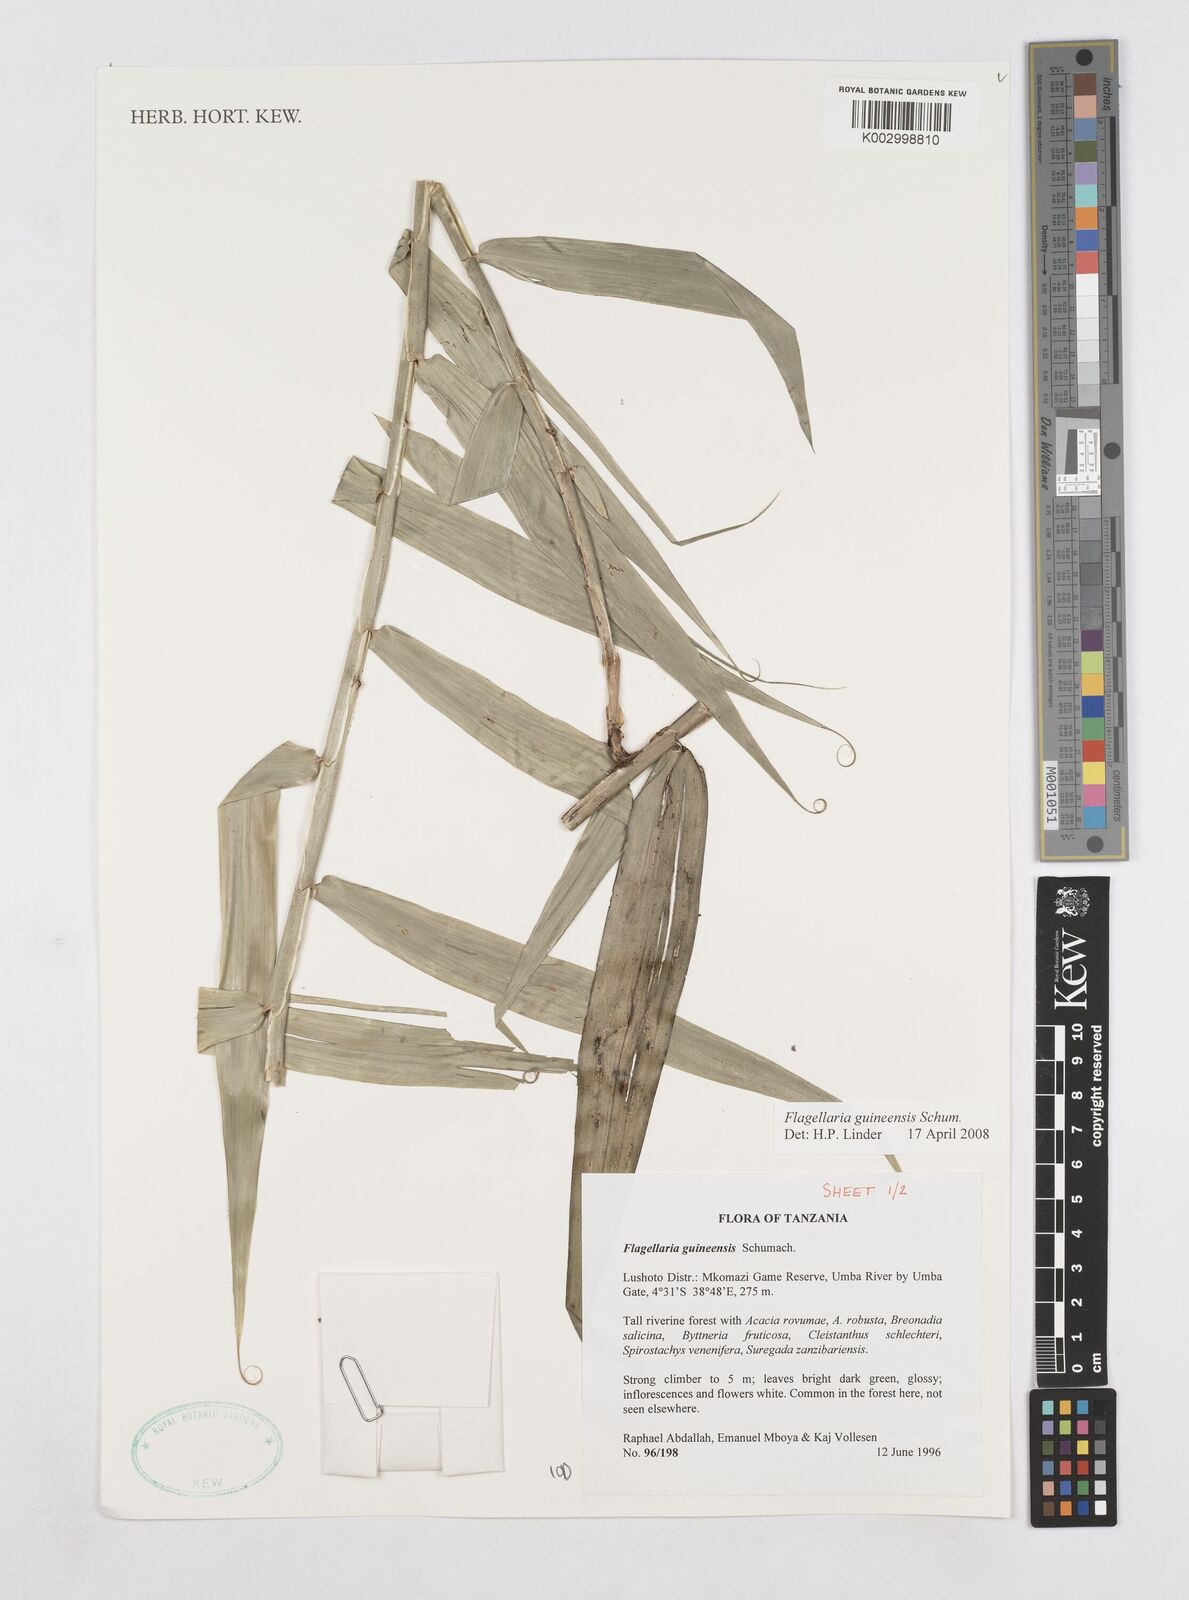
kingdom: Plantae
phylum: Tracheophyta
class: Liliopsida
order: Poales
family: Flagellariaceae
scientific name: Flagellariaceae
